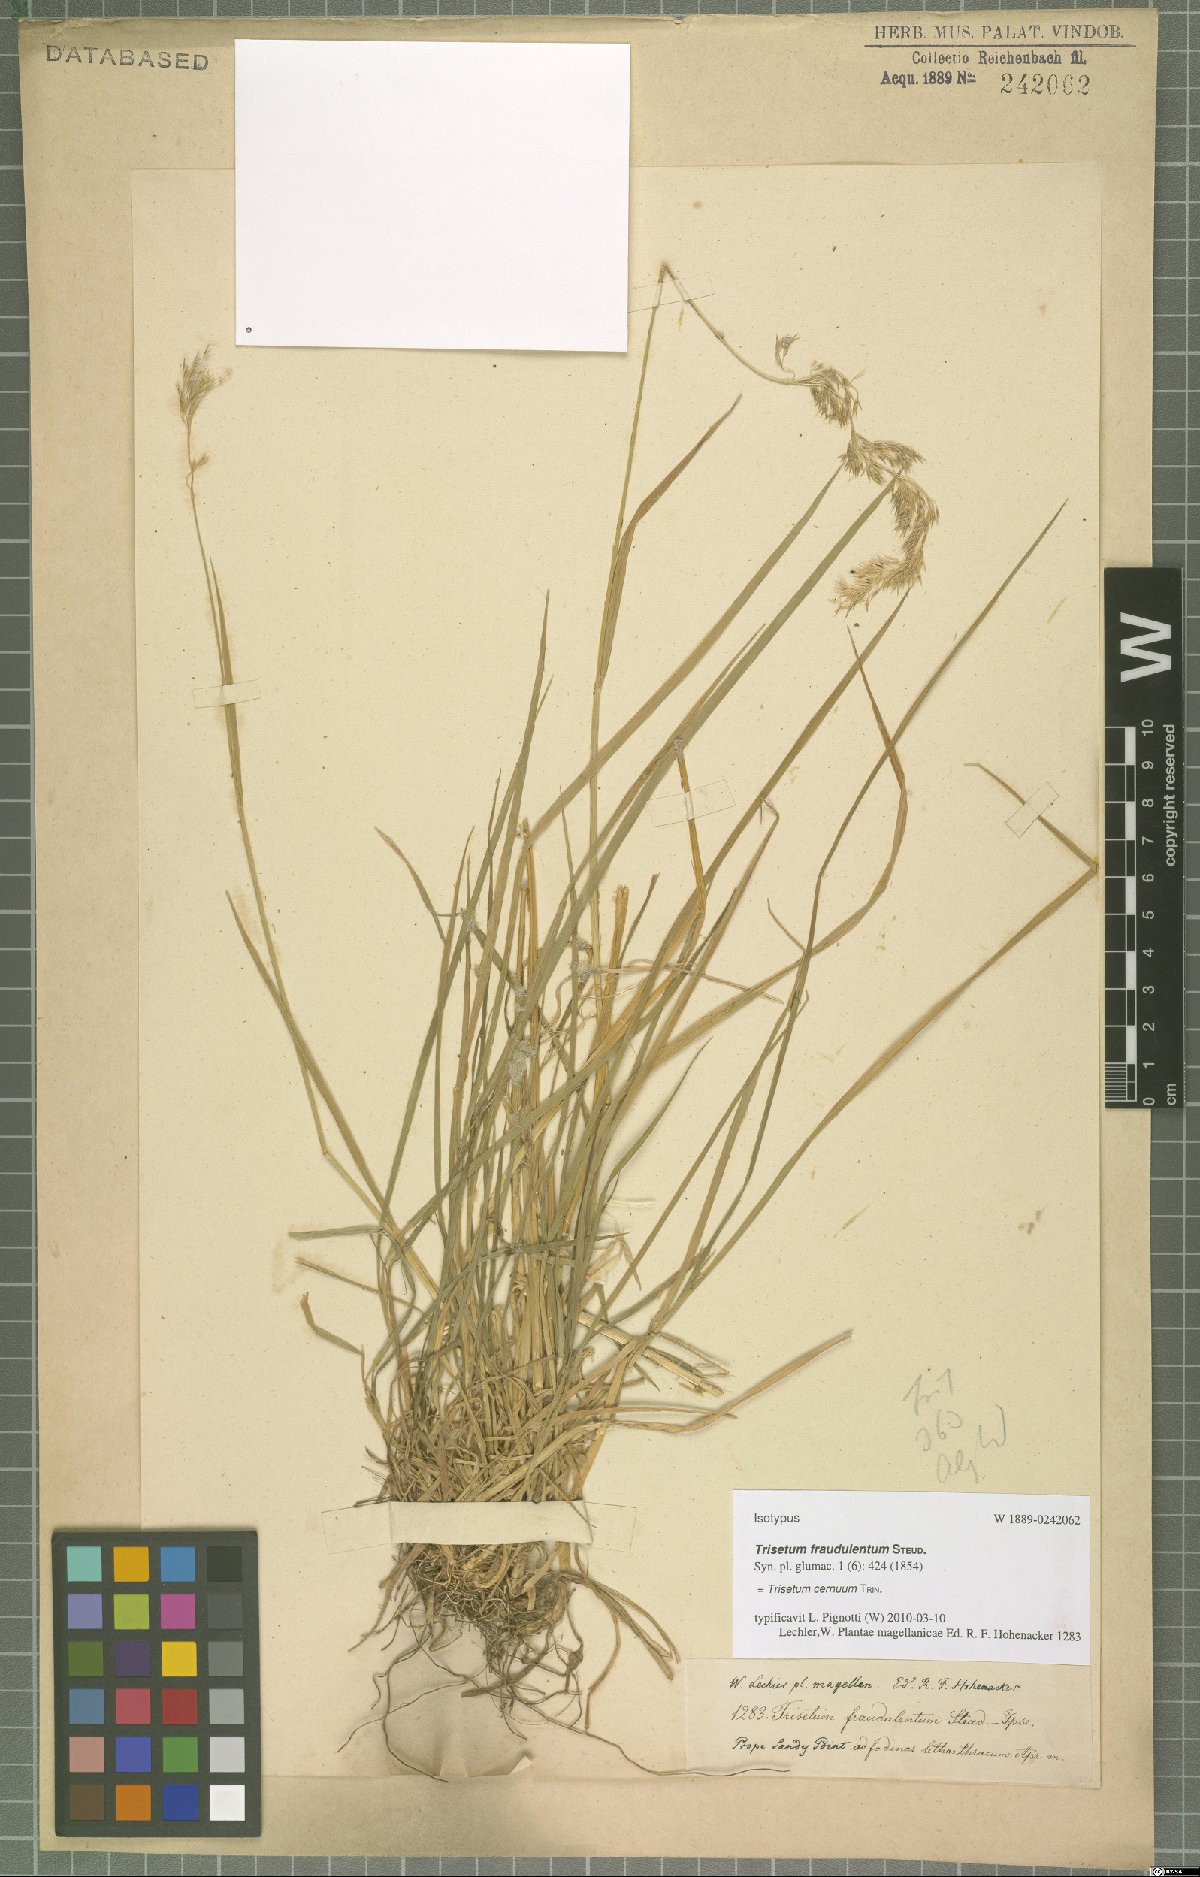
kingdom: Plantae
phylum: Tracheophyta
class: Liliopsida
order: Poales
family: Poaceae
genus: Polypogon
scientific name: Polypogon magellanicus
